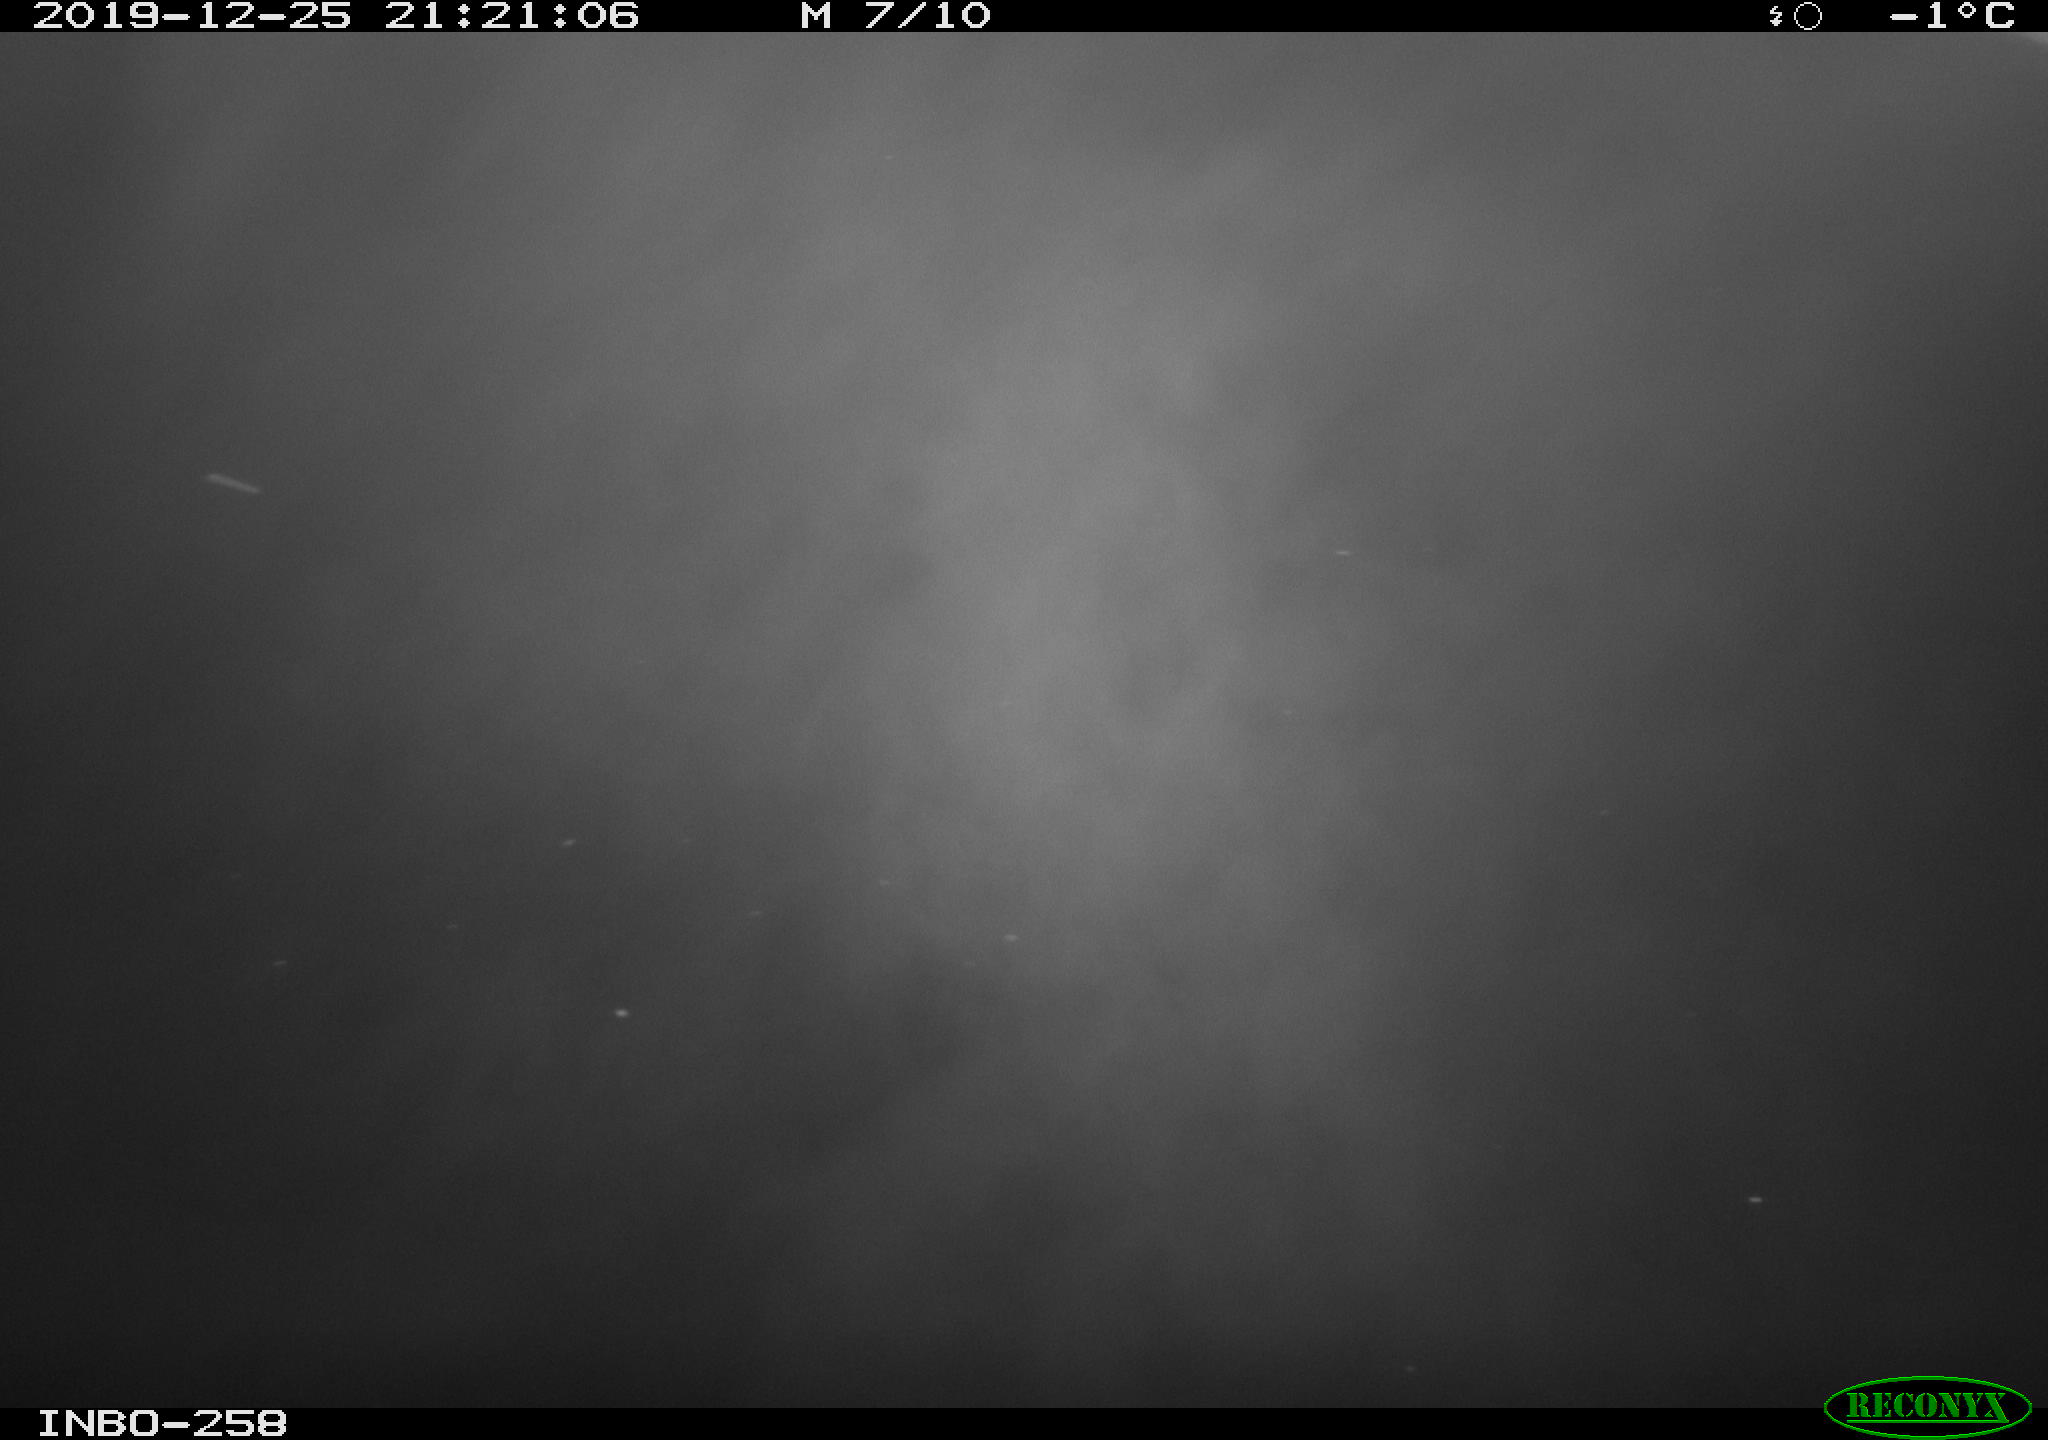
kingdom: Animalia
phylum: Chordata
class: Aves
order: Anseriformes
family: Anatidae
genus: Anas
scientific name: Anas platyrhynchos
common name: Mallard
